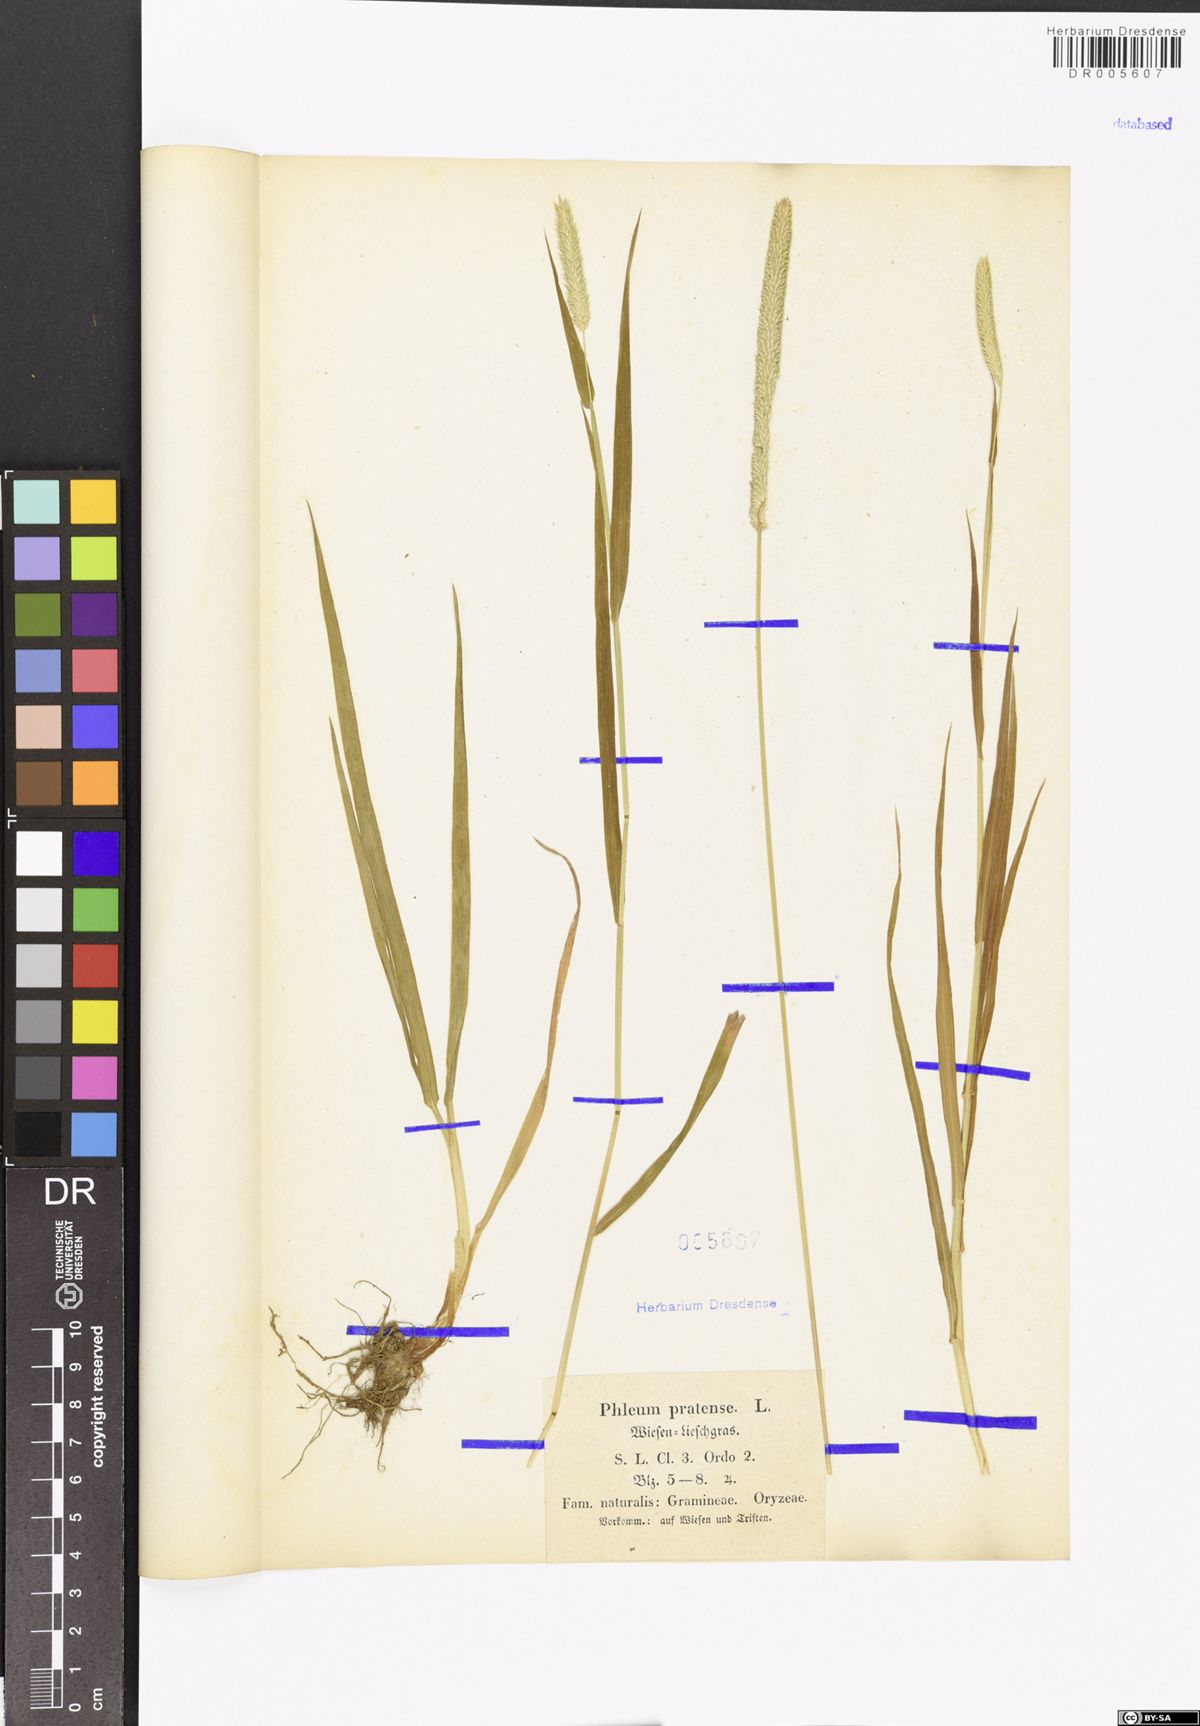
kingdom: Plantae
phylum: Tracheophyta
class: Liliopsida
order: Poales
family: Poaceae
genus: Phleum
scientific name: Phleum pratense
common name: Timothy grass
